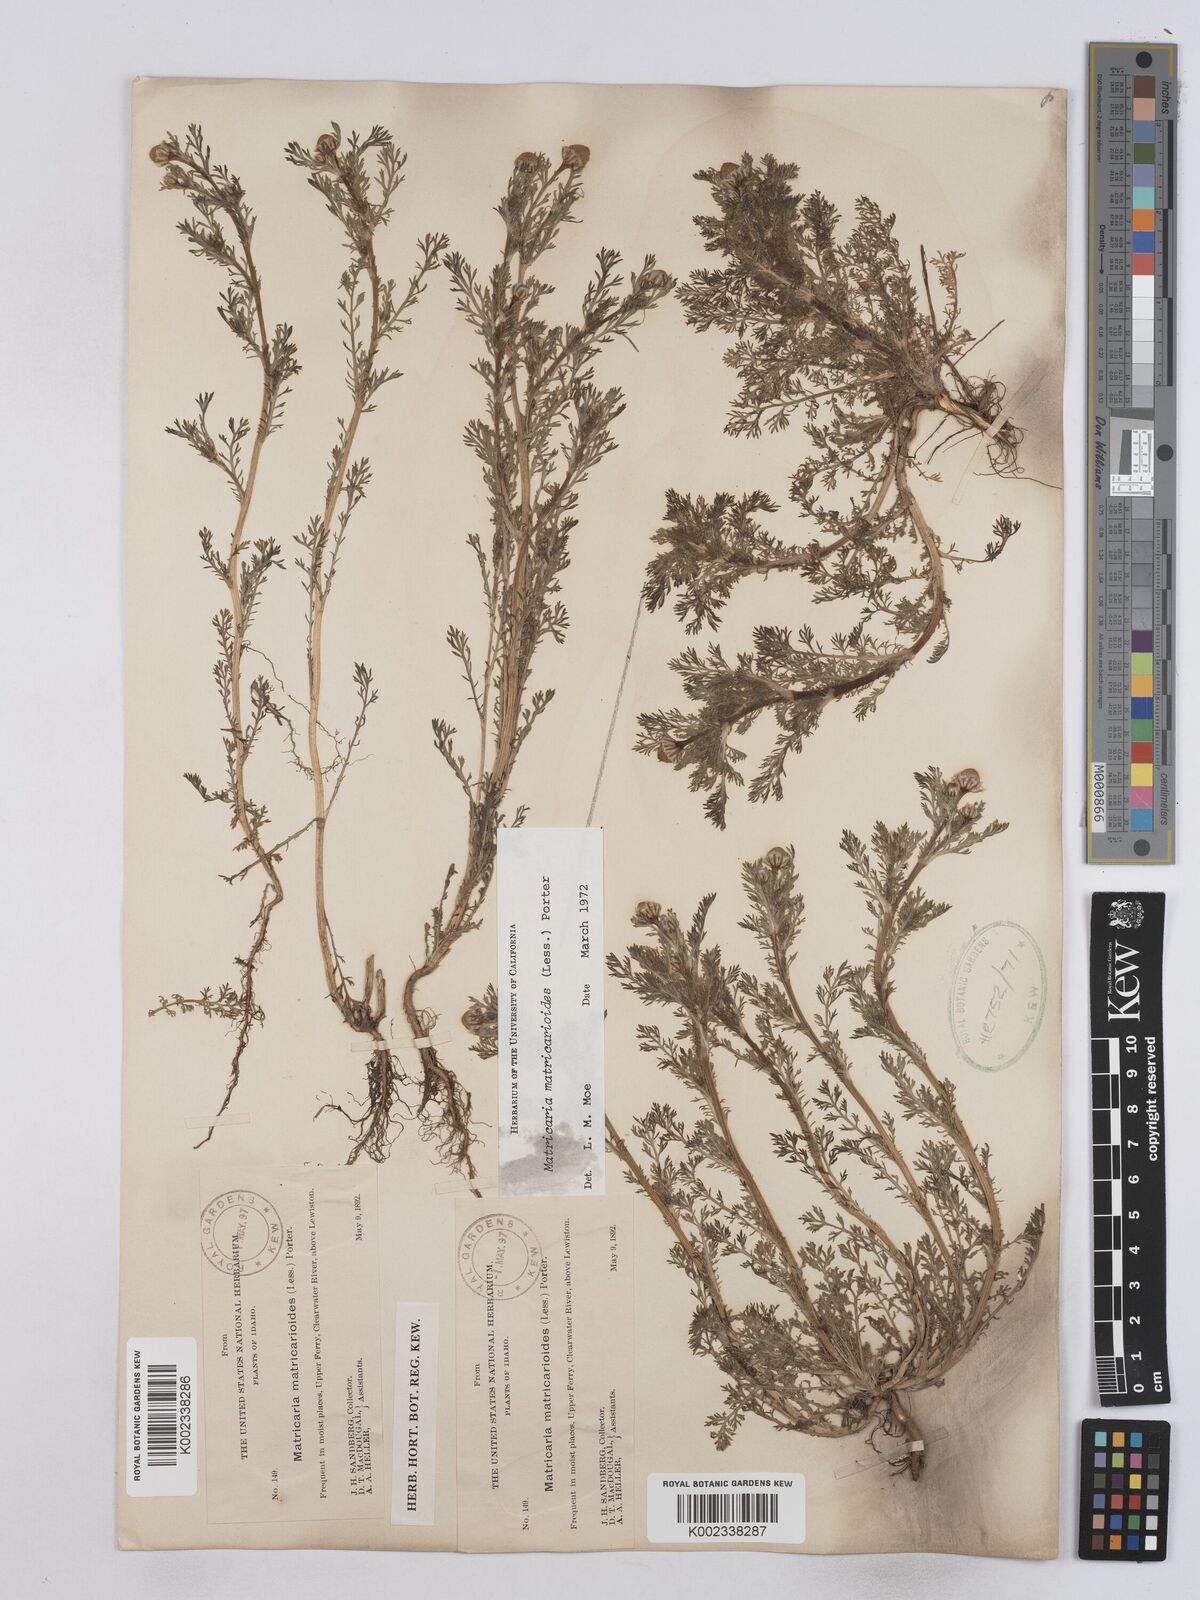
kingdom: Plantae
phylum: Tracheophyta
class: Magnoliopsida
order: Asterales
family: Asteraceae
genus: Matricaria
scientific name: Matricaria discoidea
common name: Disc mayweed
